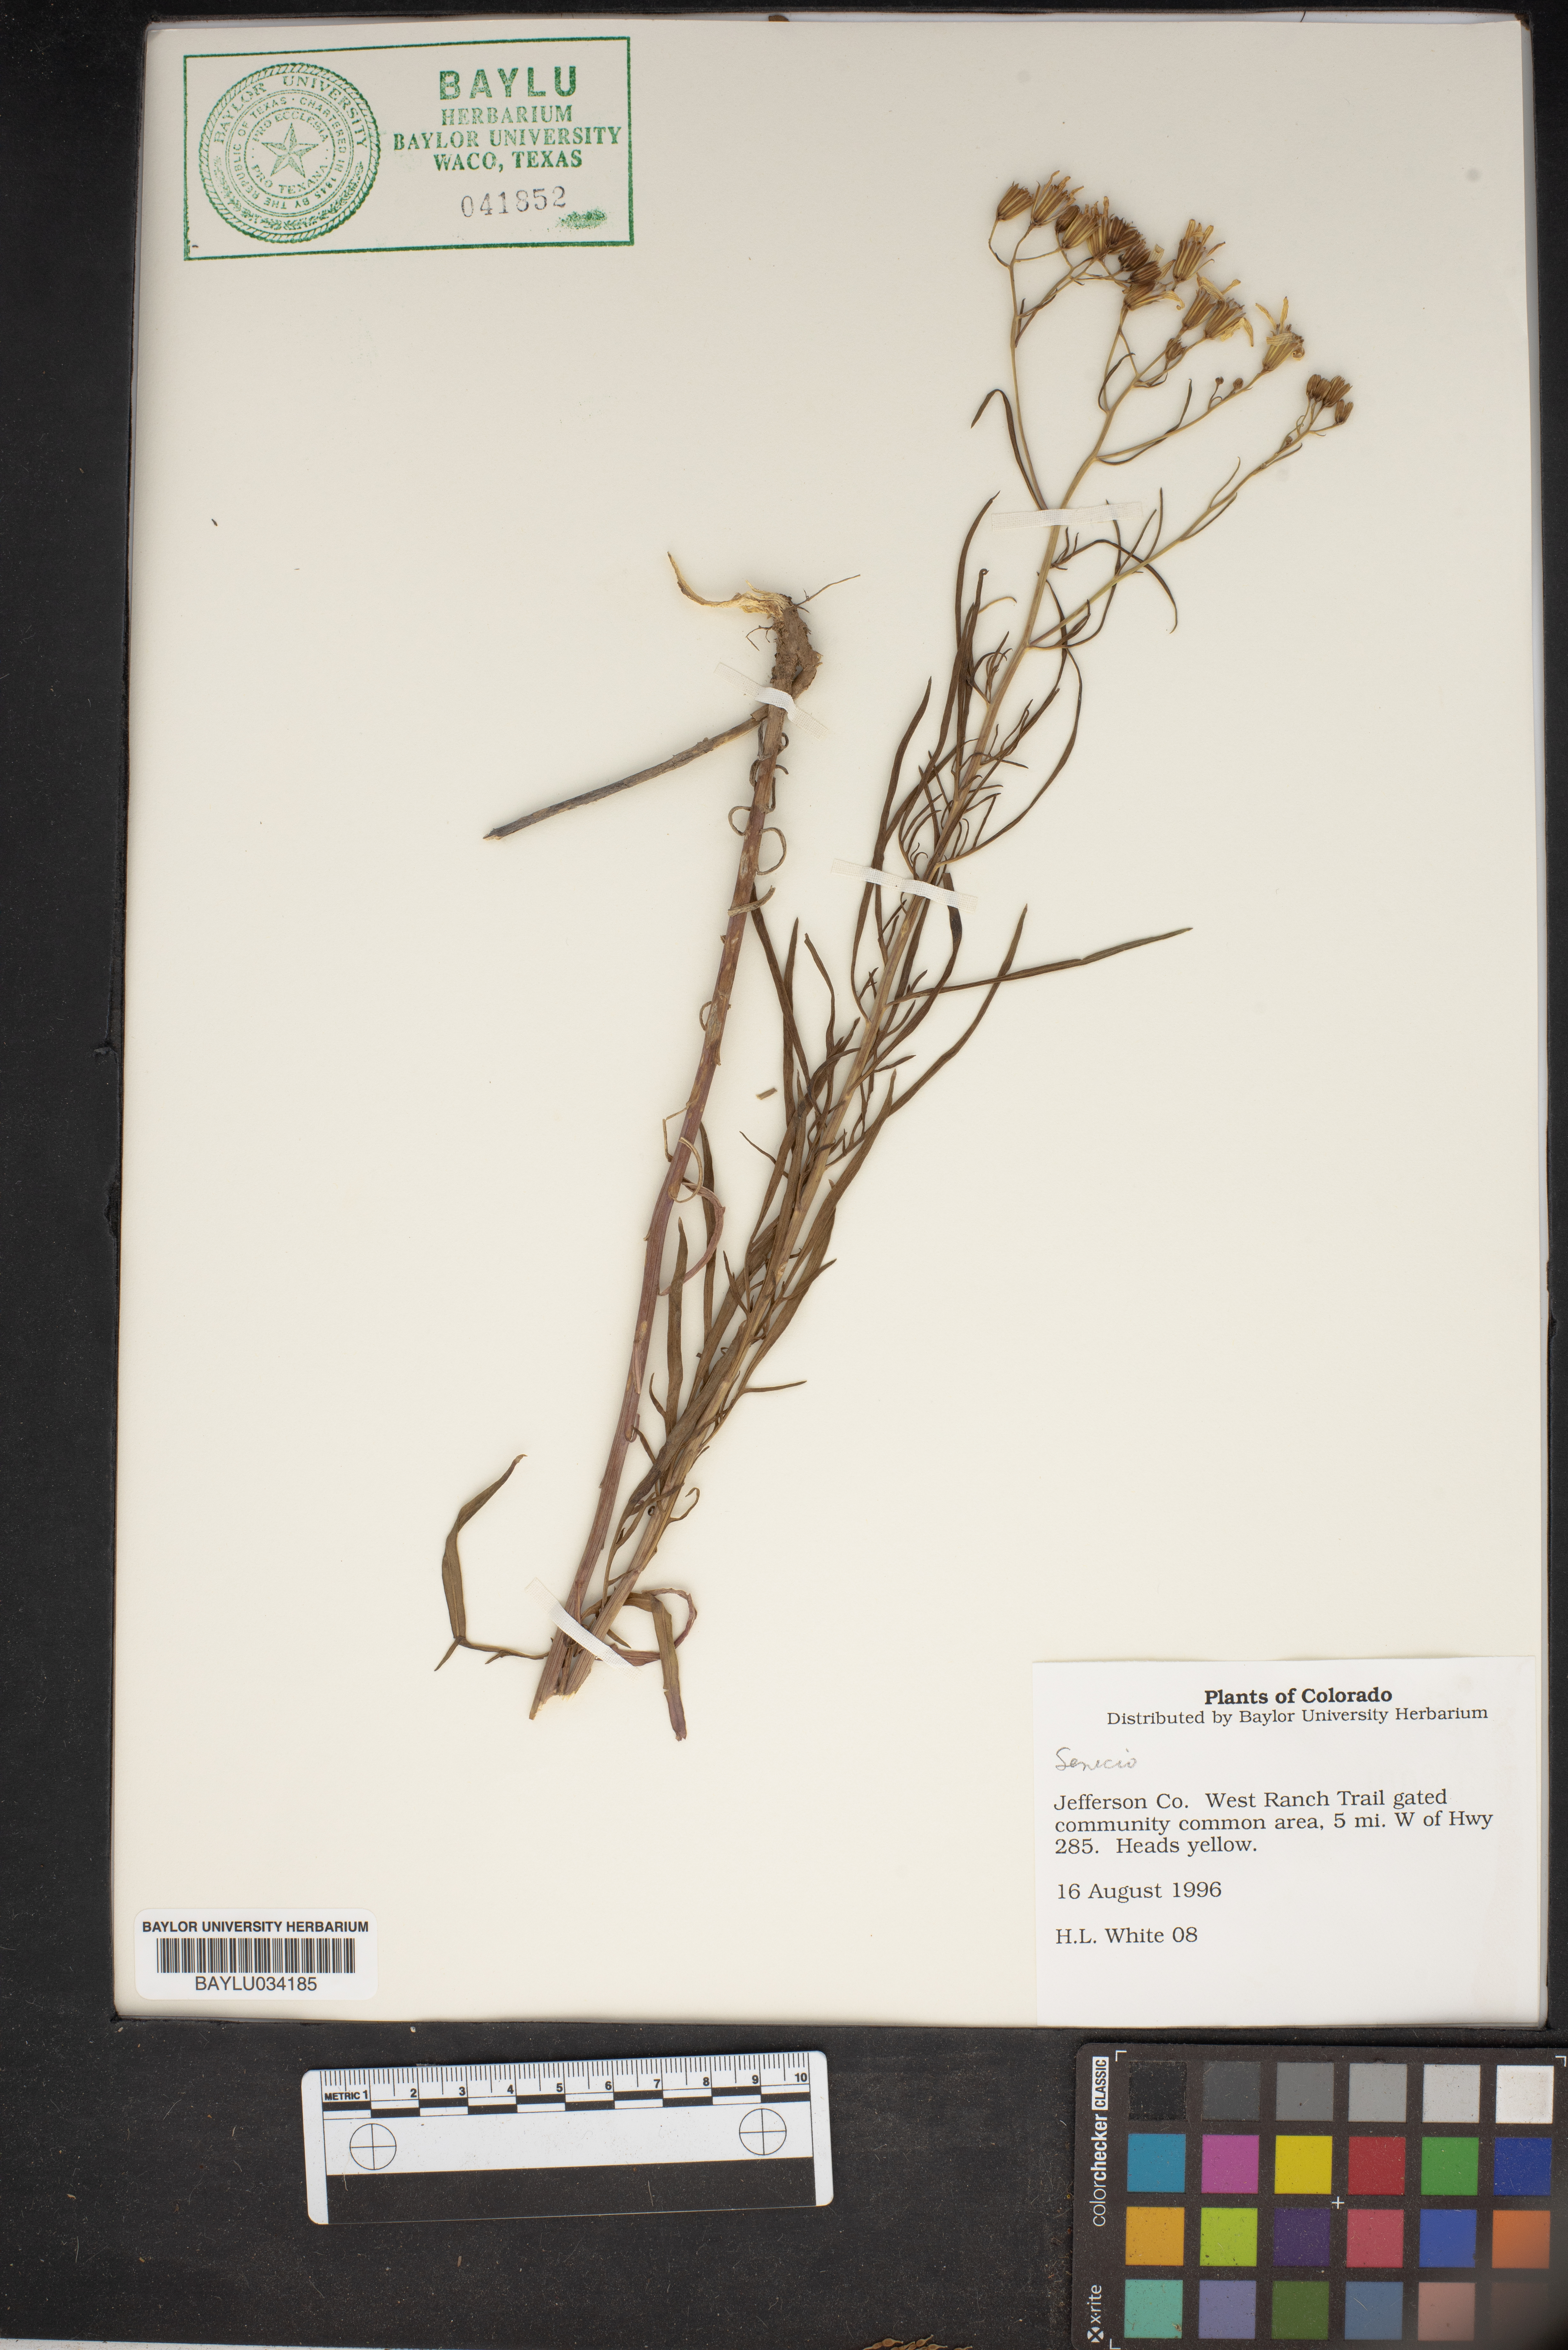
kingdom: Plantae
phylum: Tracheophyta
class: Magnoliopsida
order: Asterales
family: Asteraceae
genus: Senecio
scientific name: Senecio
